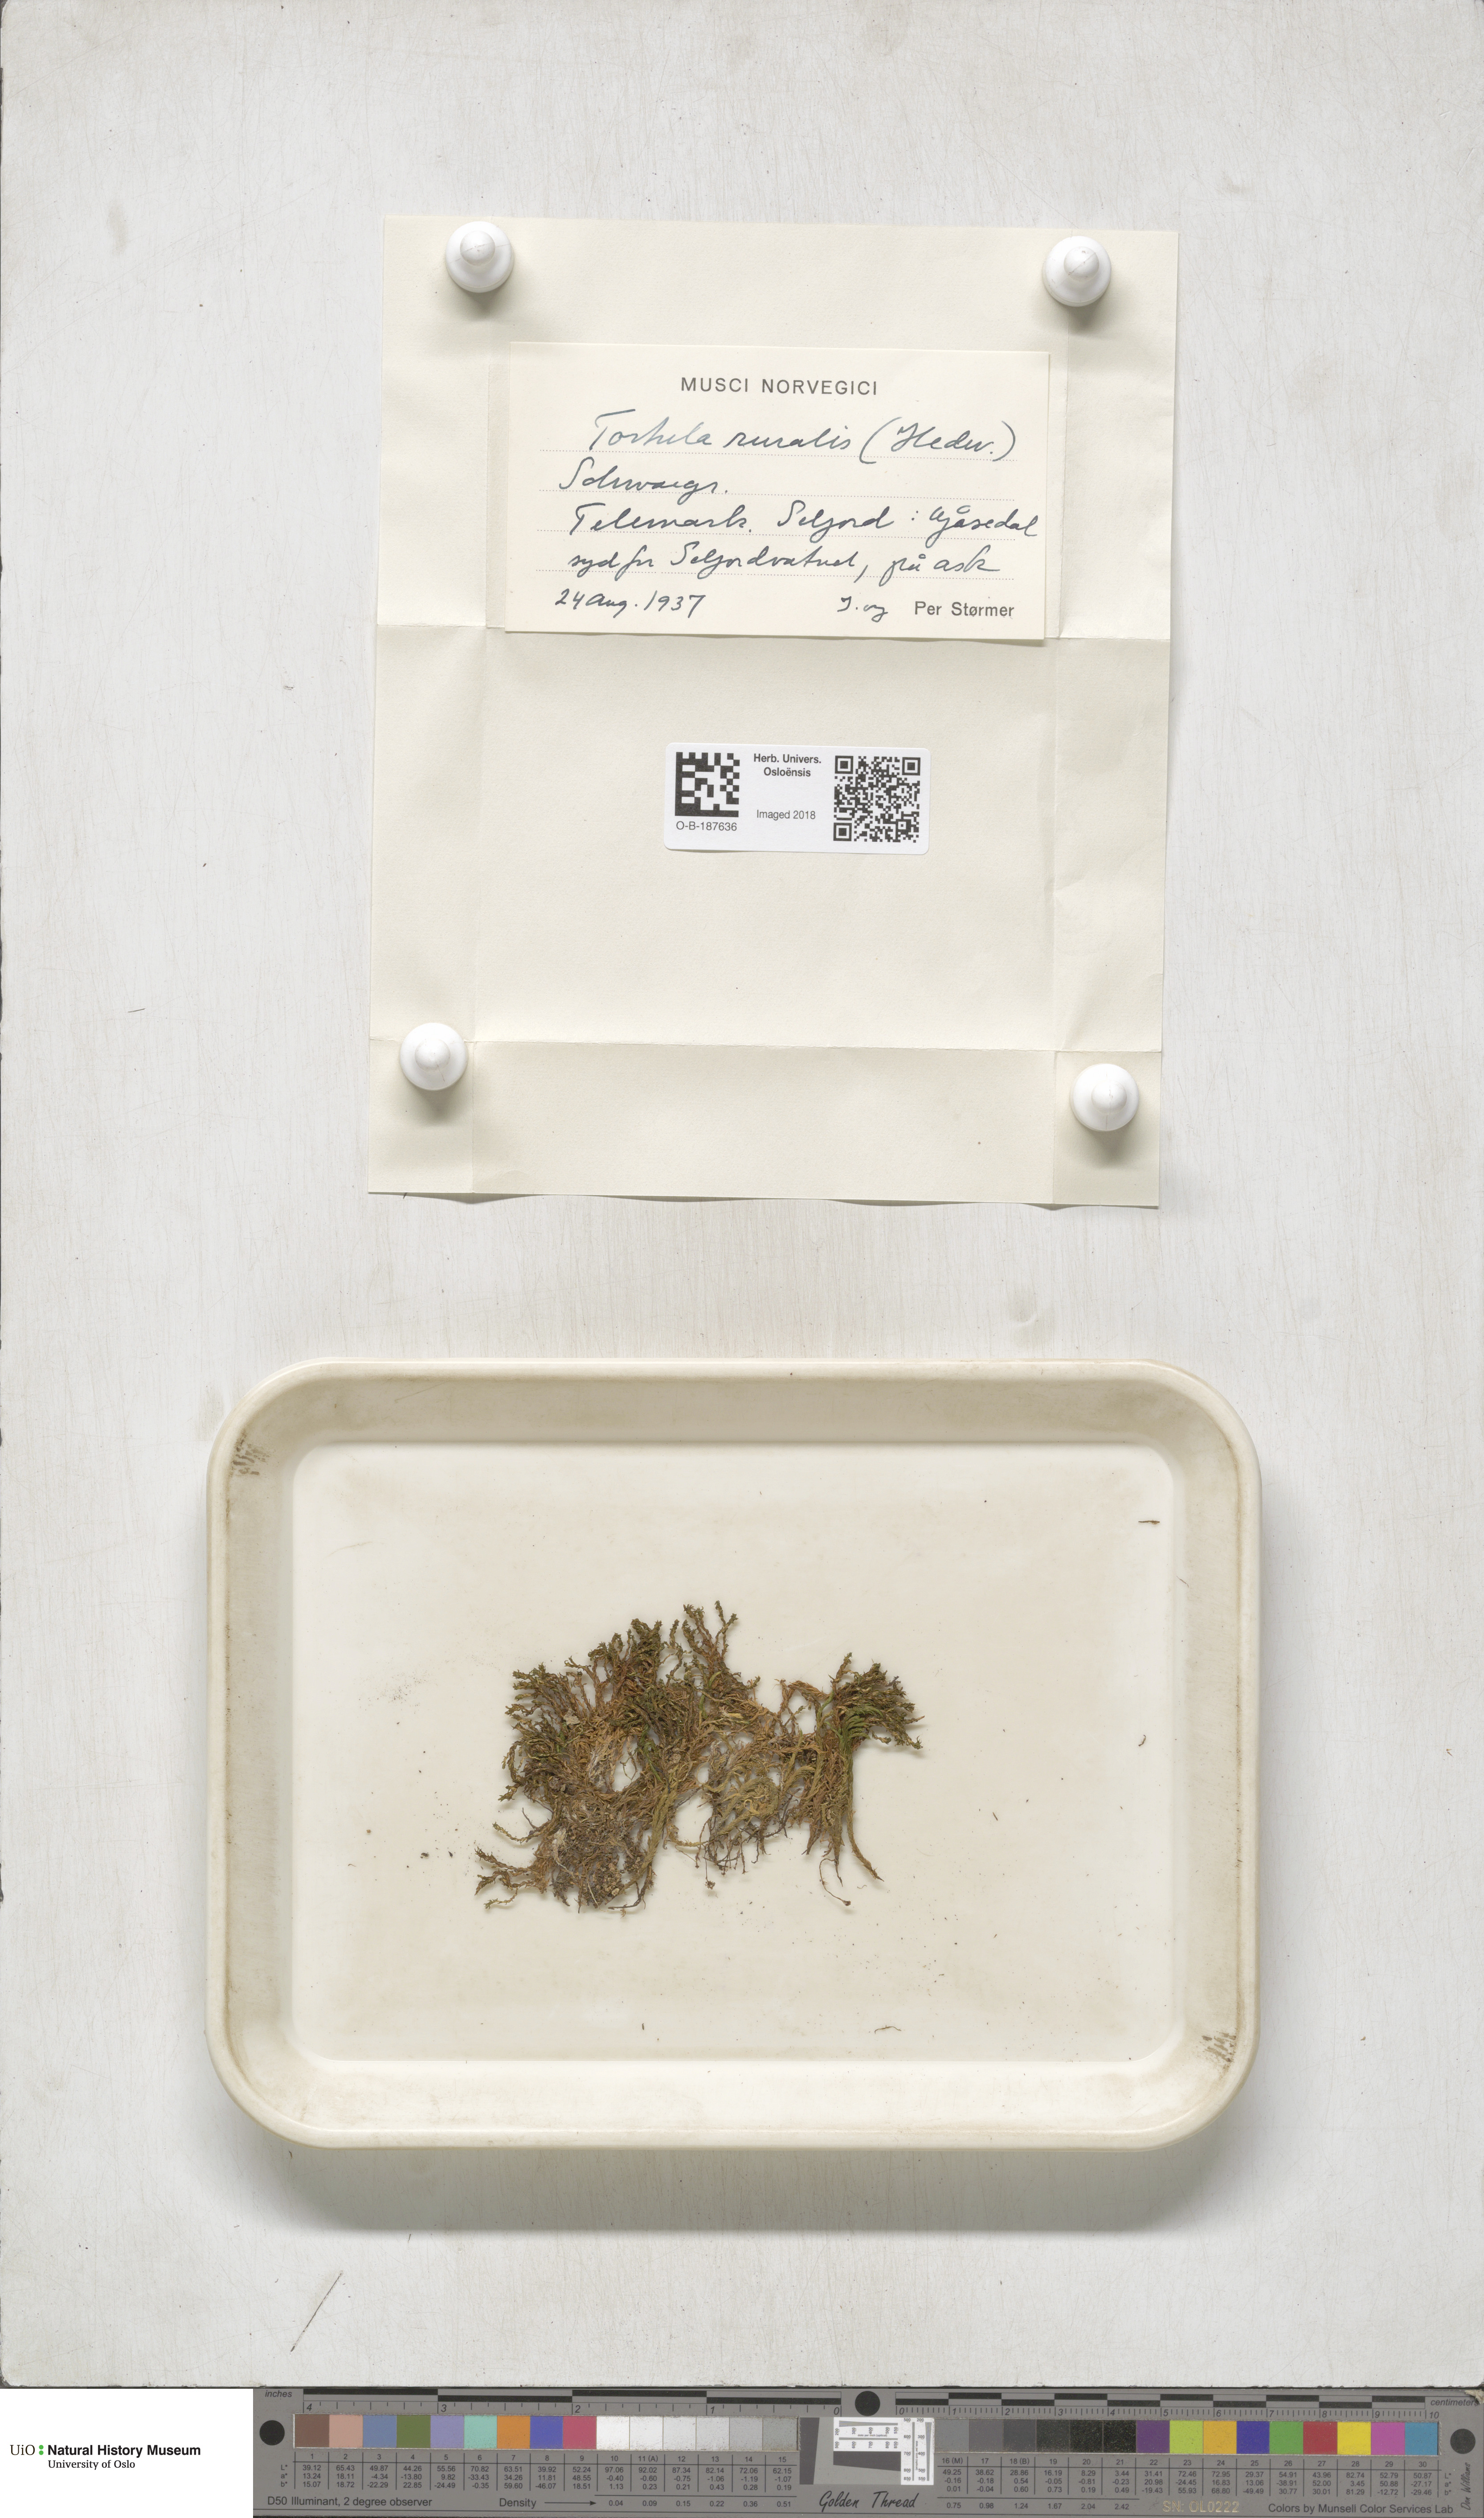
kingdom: Plantae
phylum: Bryophyta
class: Bryopsida
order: Pottiales
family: Pottiaceae
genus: Syntrichia
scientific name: Syntrichia ruralis
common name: Sidewalk screw moss
